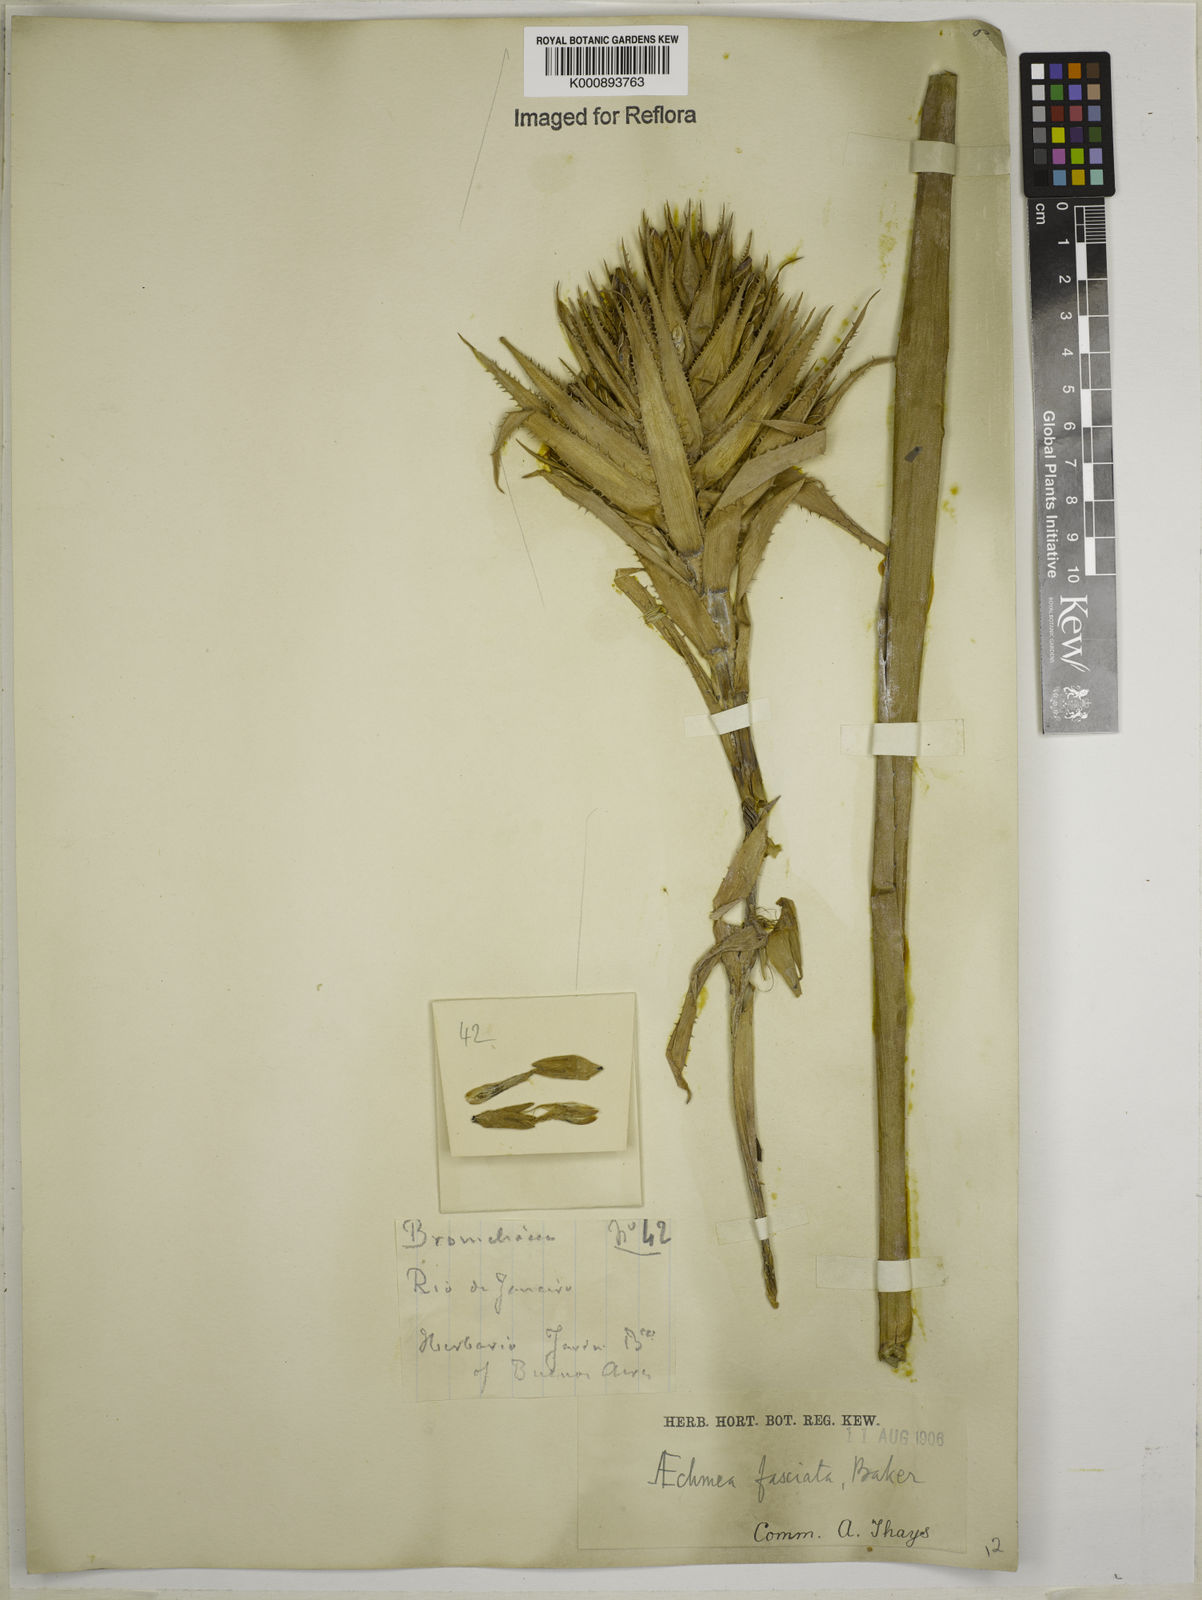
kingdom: Plantae
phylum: Tracheophyta
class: Liliopsida
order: Poales
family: Bromeliaceae
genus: Aechmea
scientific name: Aechmea fasciata
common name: Urnplant
